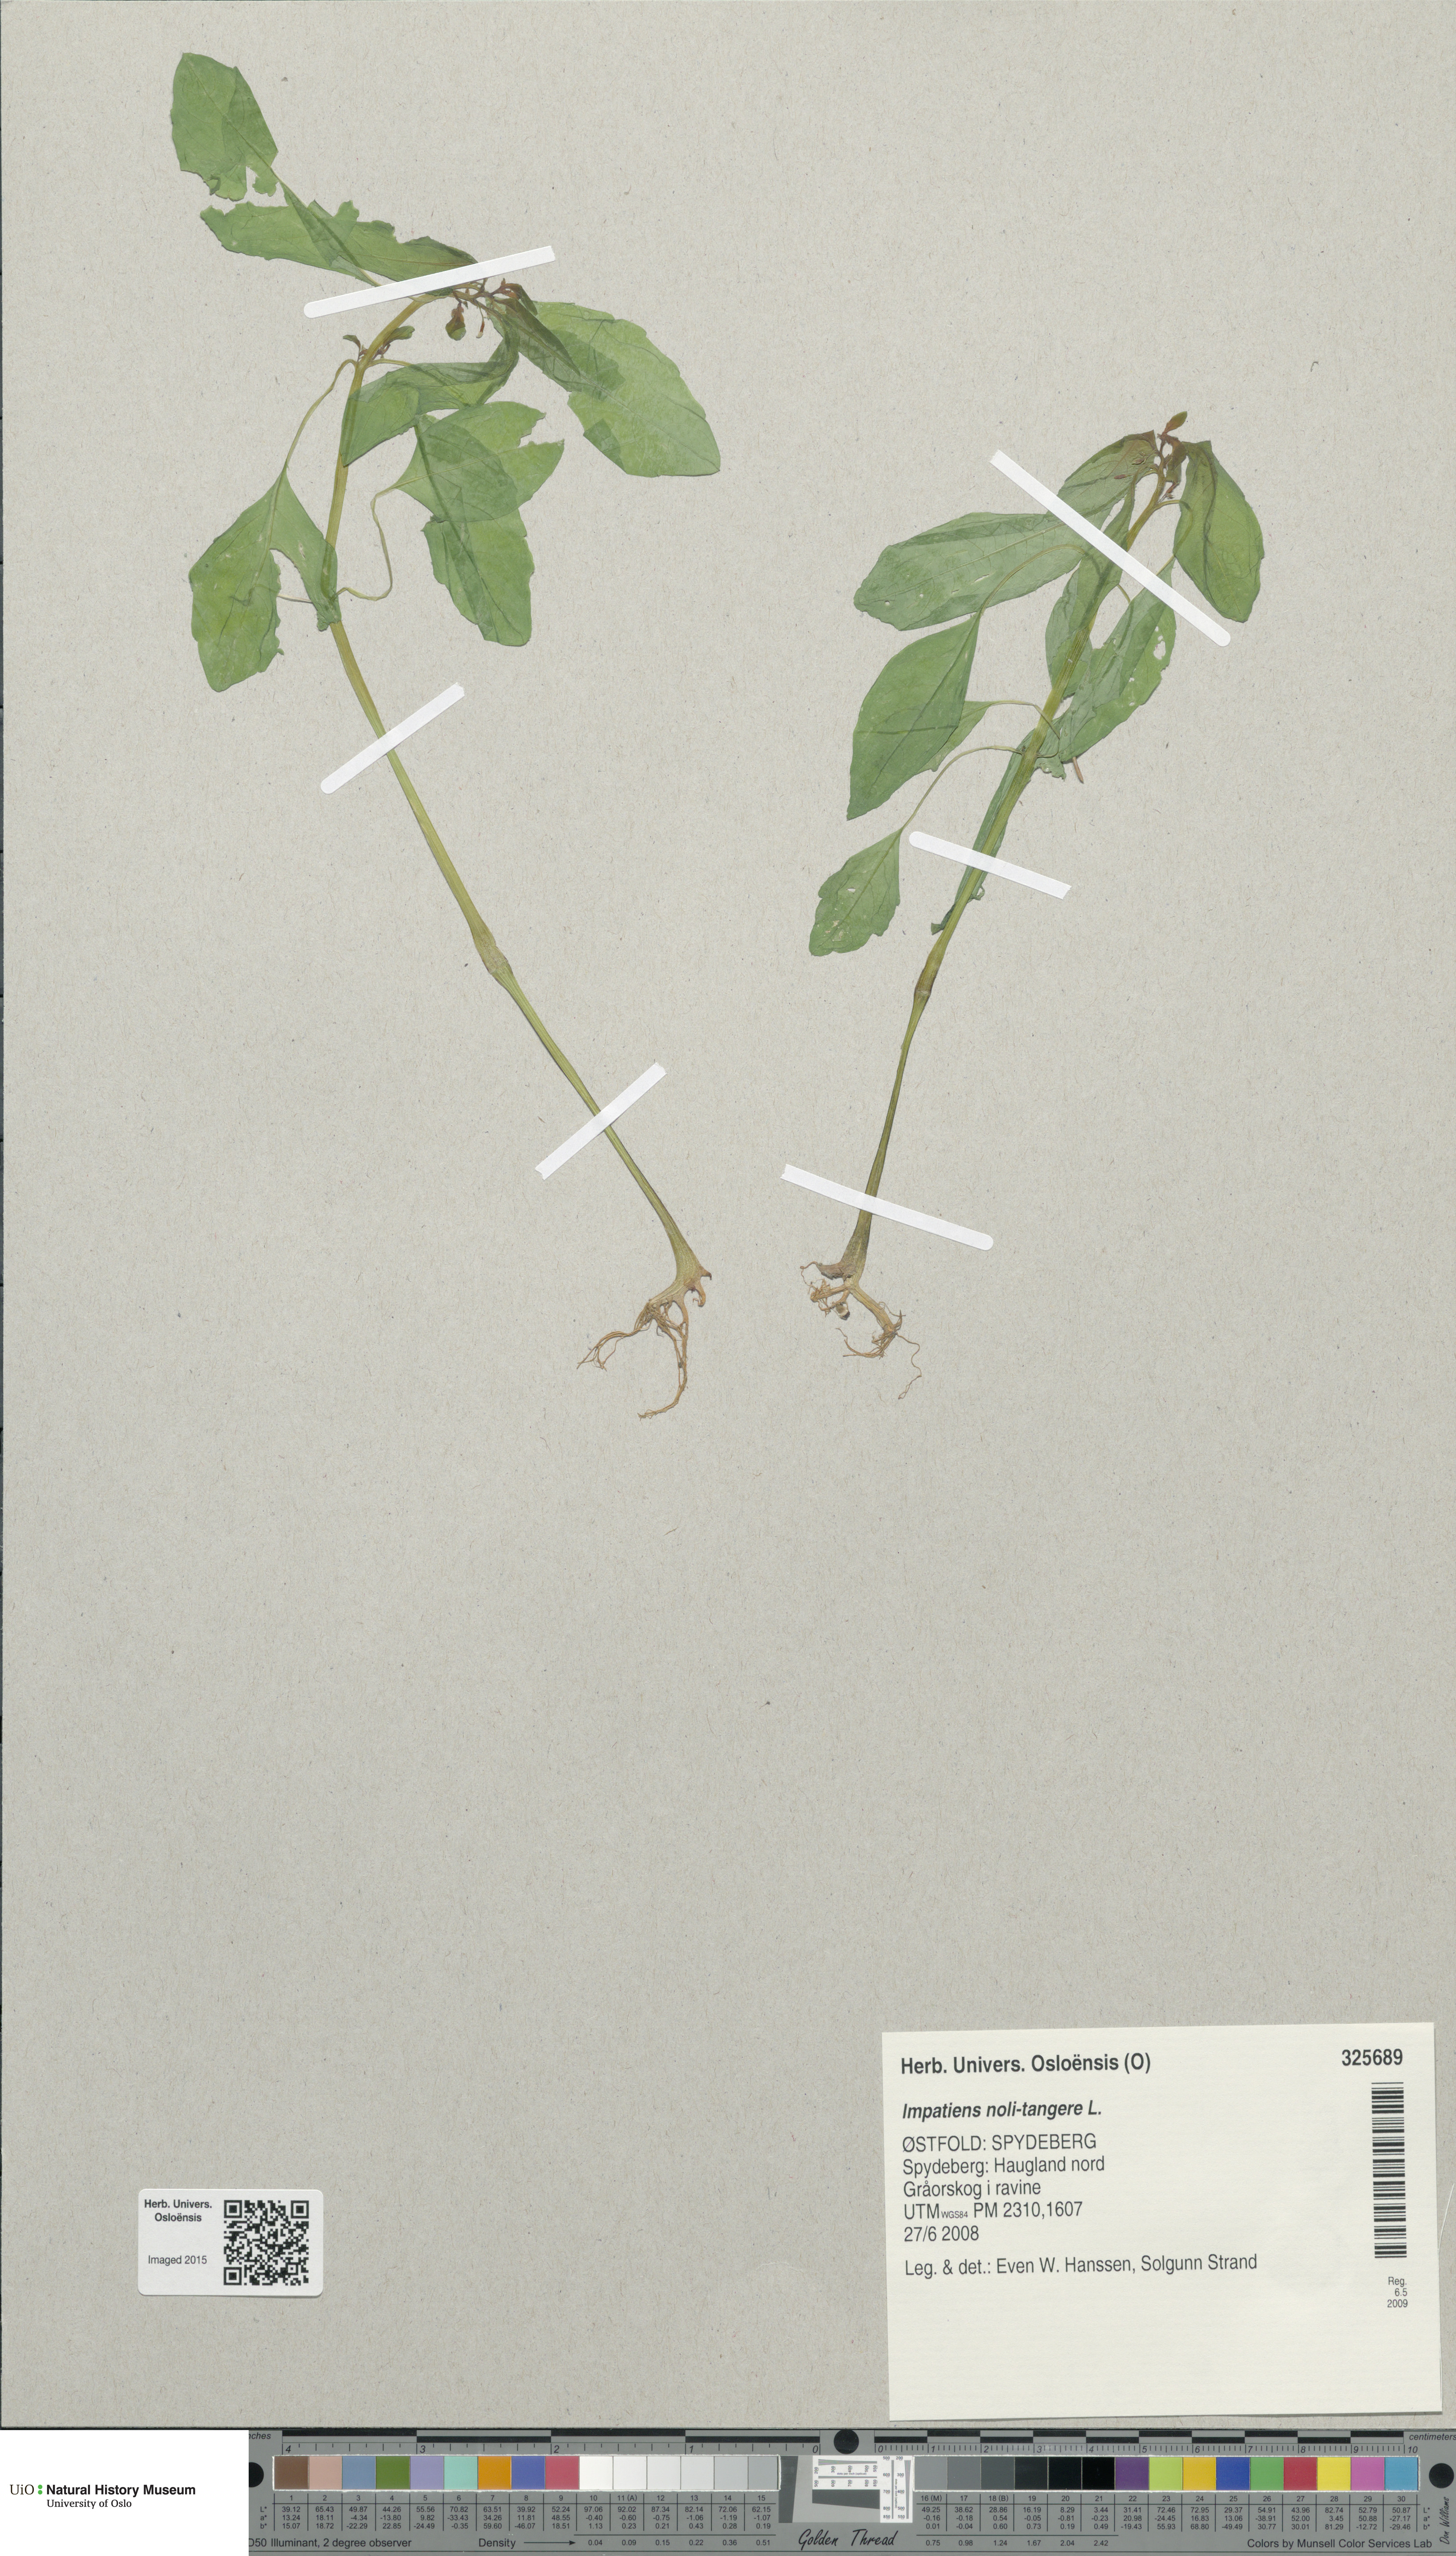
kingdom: Plantae
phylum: Tracheophyta
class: Magnoliopsida
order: Ericales
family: Balsaminaceae
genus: Impatiens
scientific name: Impatiens noli-tangere
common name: Touch-me-not balsam
